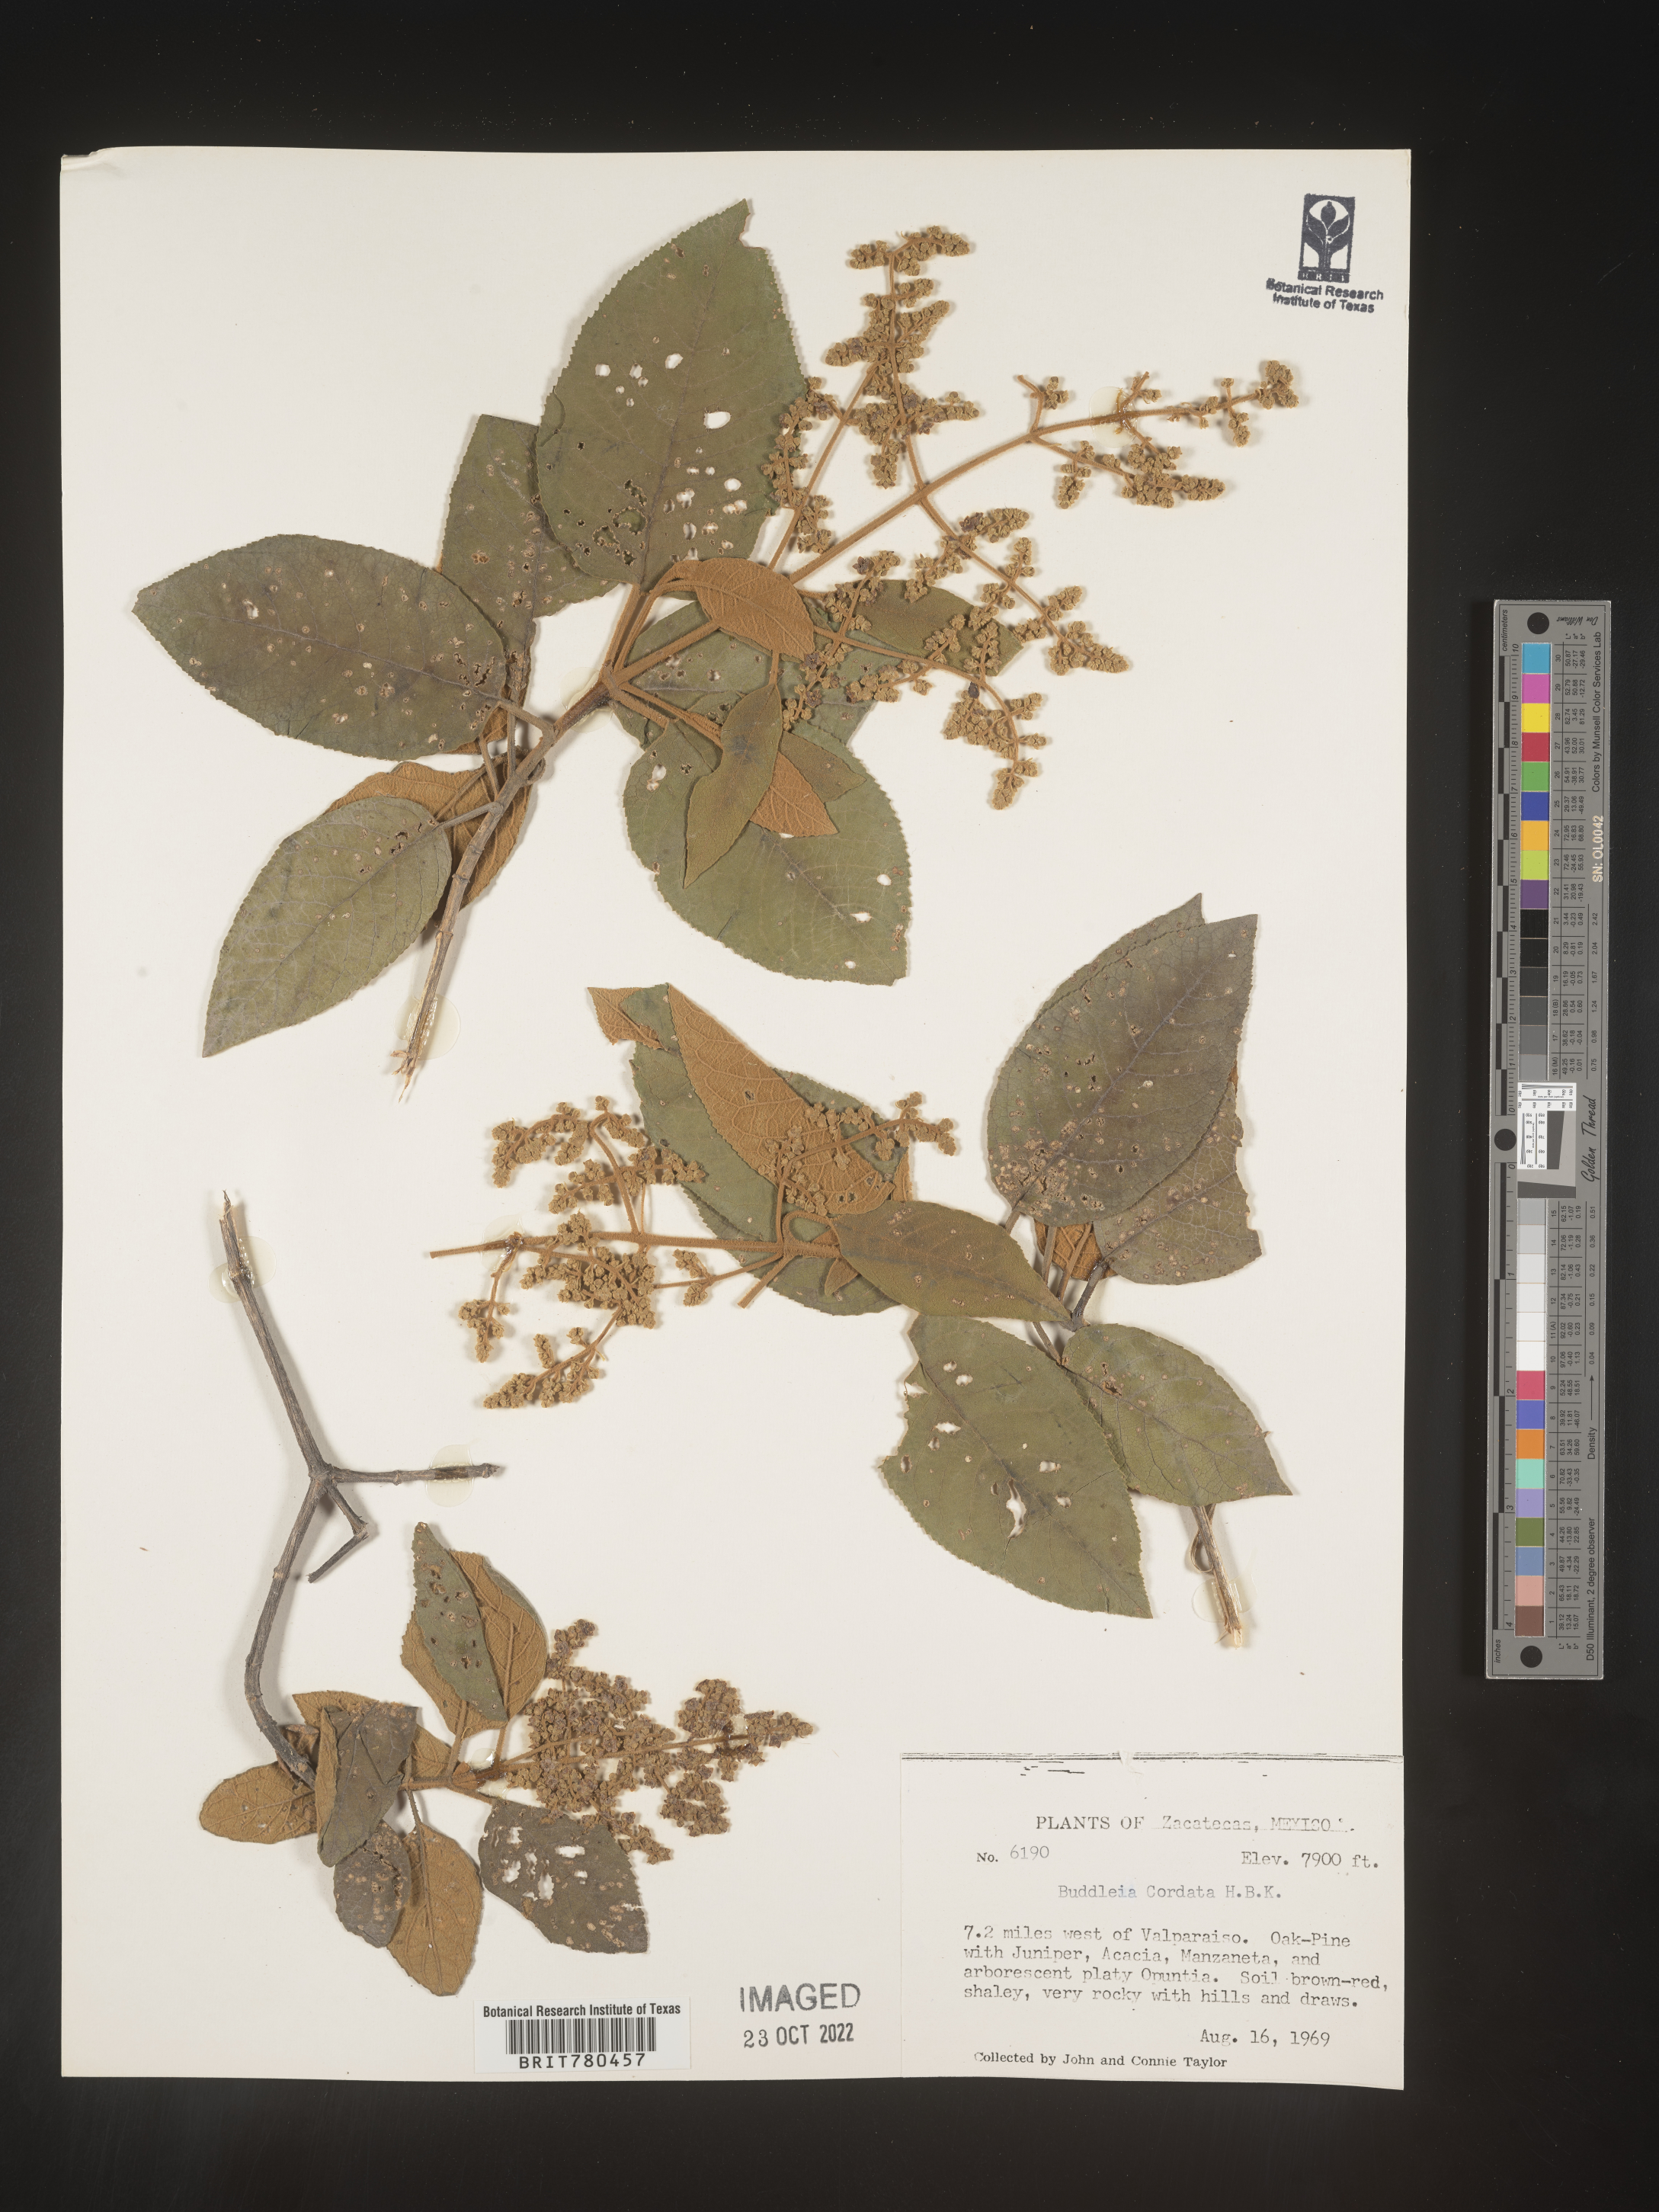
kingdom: Plantae
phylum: Tracheophyta
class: Magnoliopsida
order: Lamiales
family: Scrophulariaceae
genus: Buddleja
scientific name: Buddleja
